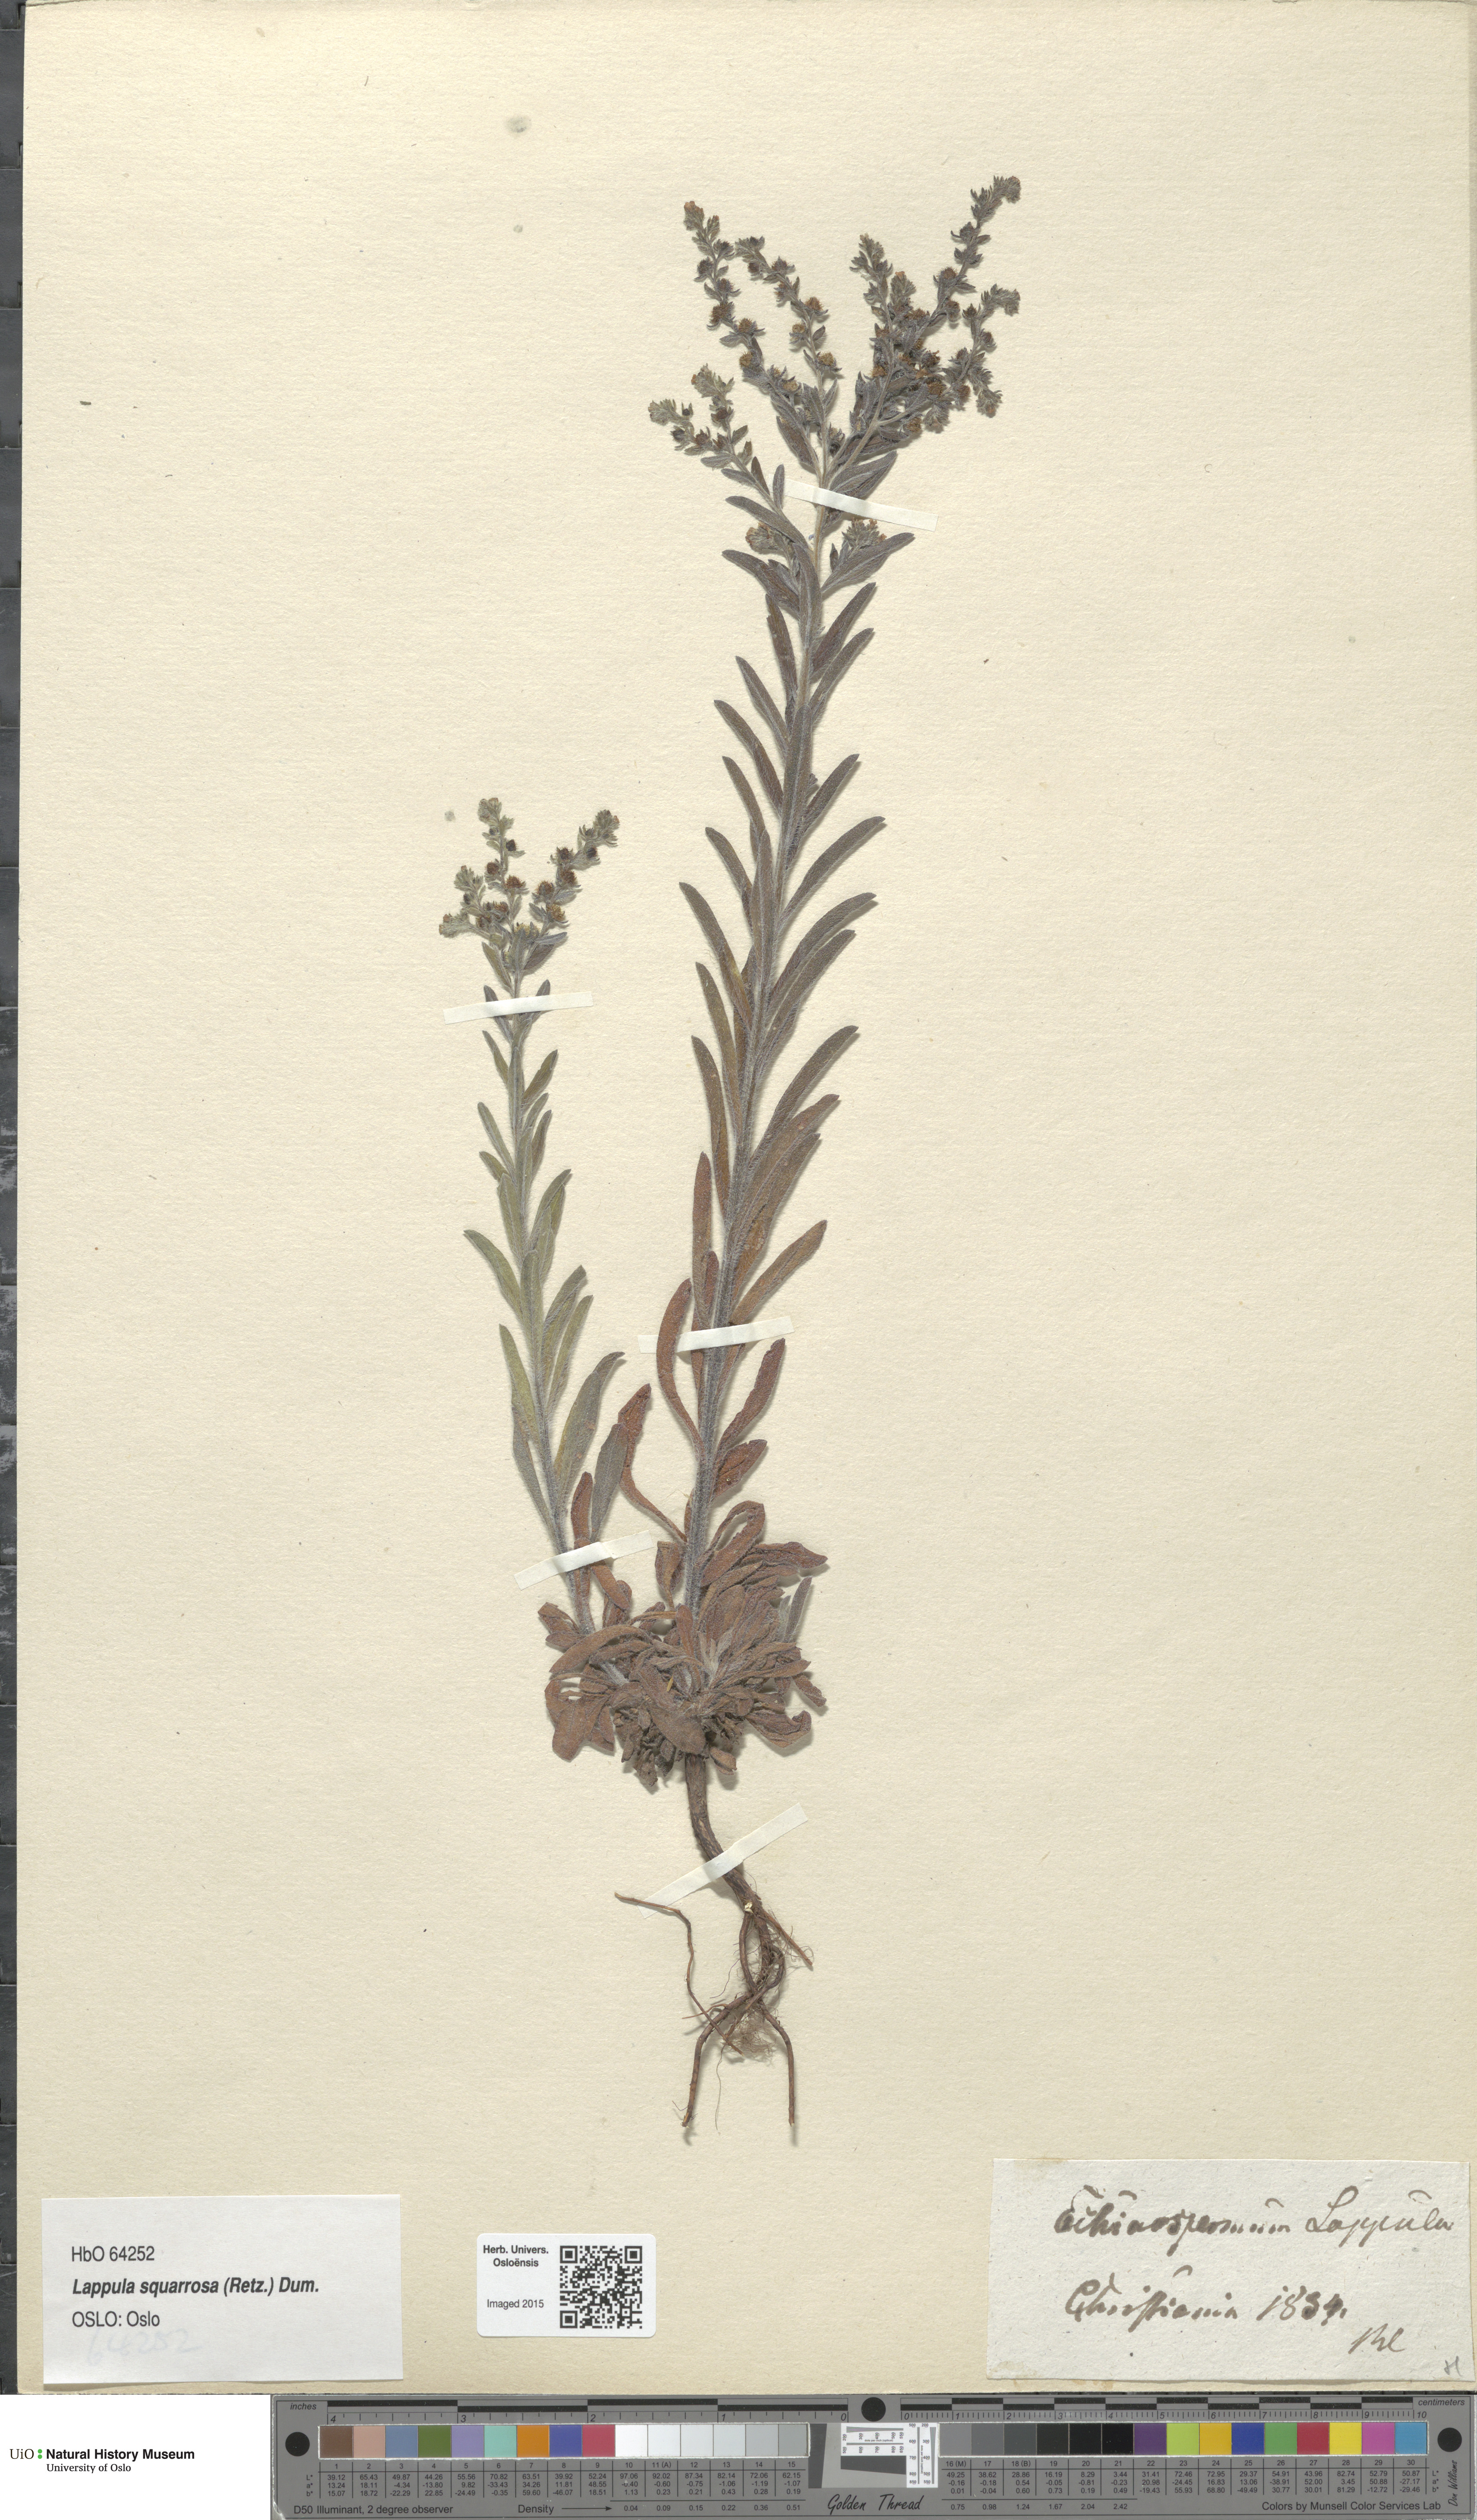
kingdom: Plantae
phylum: Tracheophyta
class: Magnoliopsida
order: Boraginales
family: Boraginaceae
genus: Lappula
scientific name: Lappula squarrosa
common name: European stickseed
